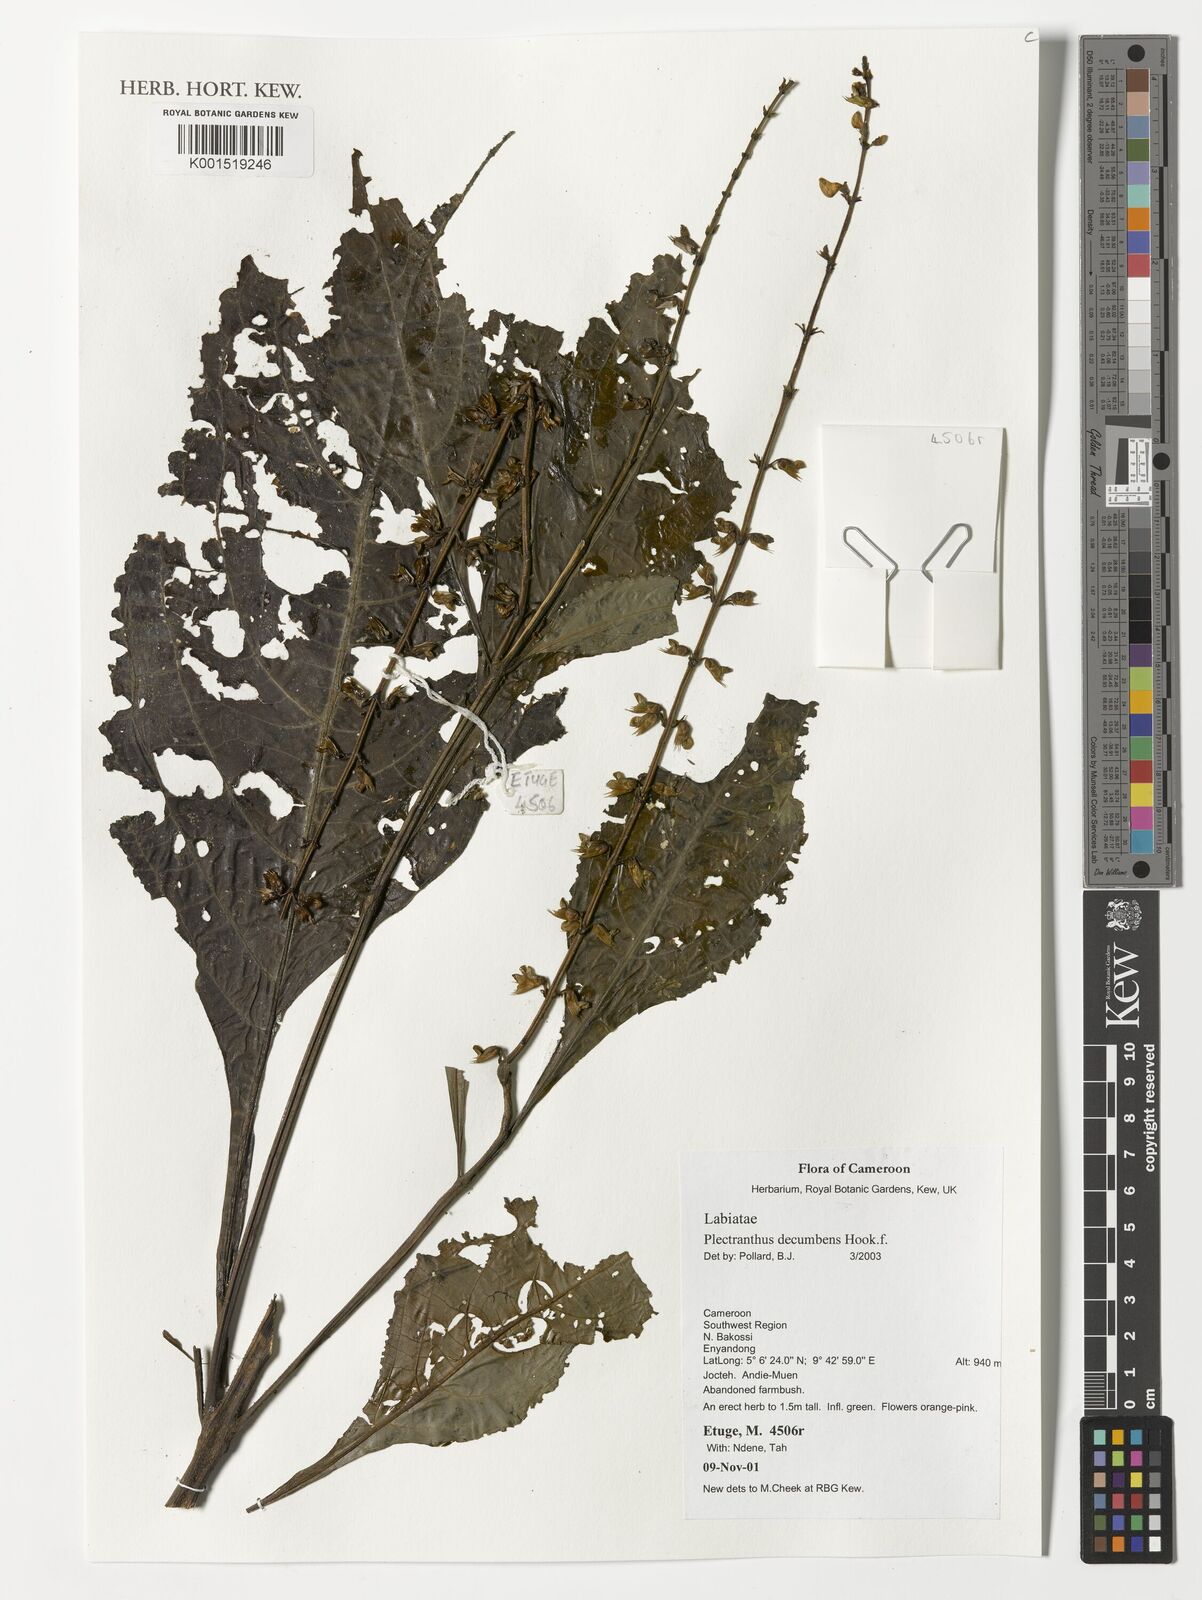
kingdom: Plantae
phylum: Tracheophyta
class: Magnoliopsida
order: Lamiales
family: Lamiaceae
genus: Coleus
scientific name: Coleus minor
